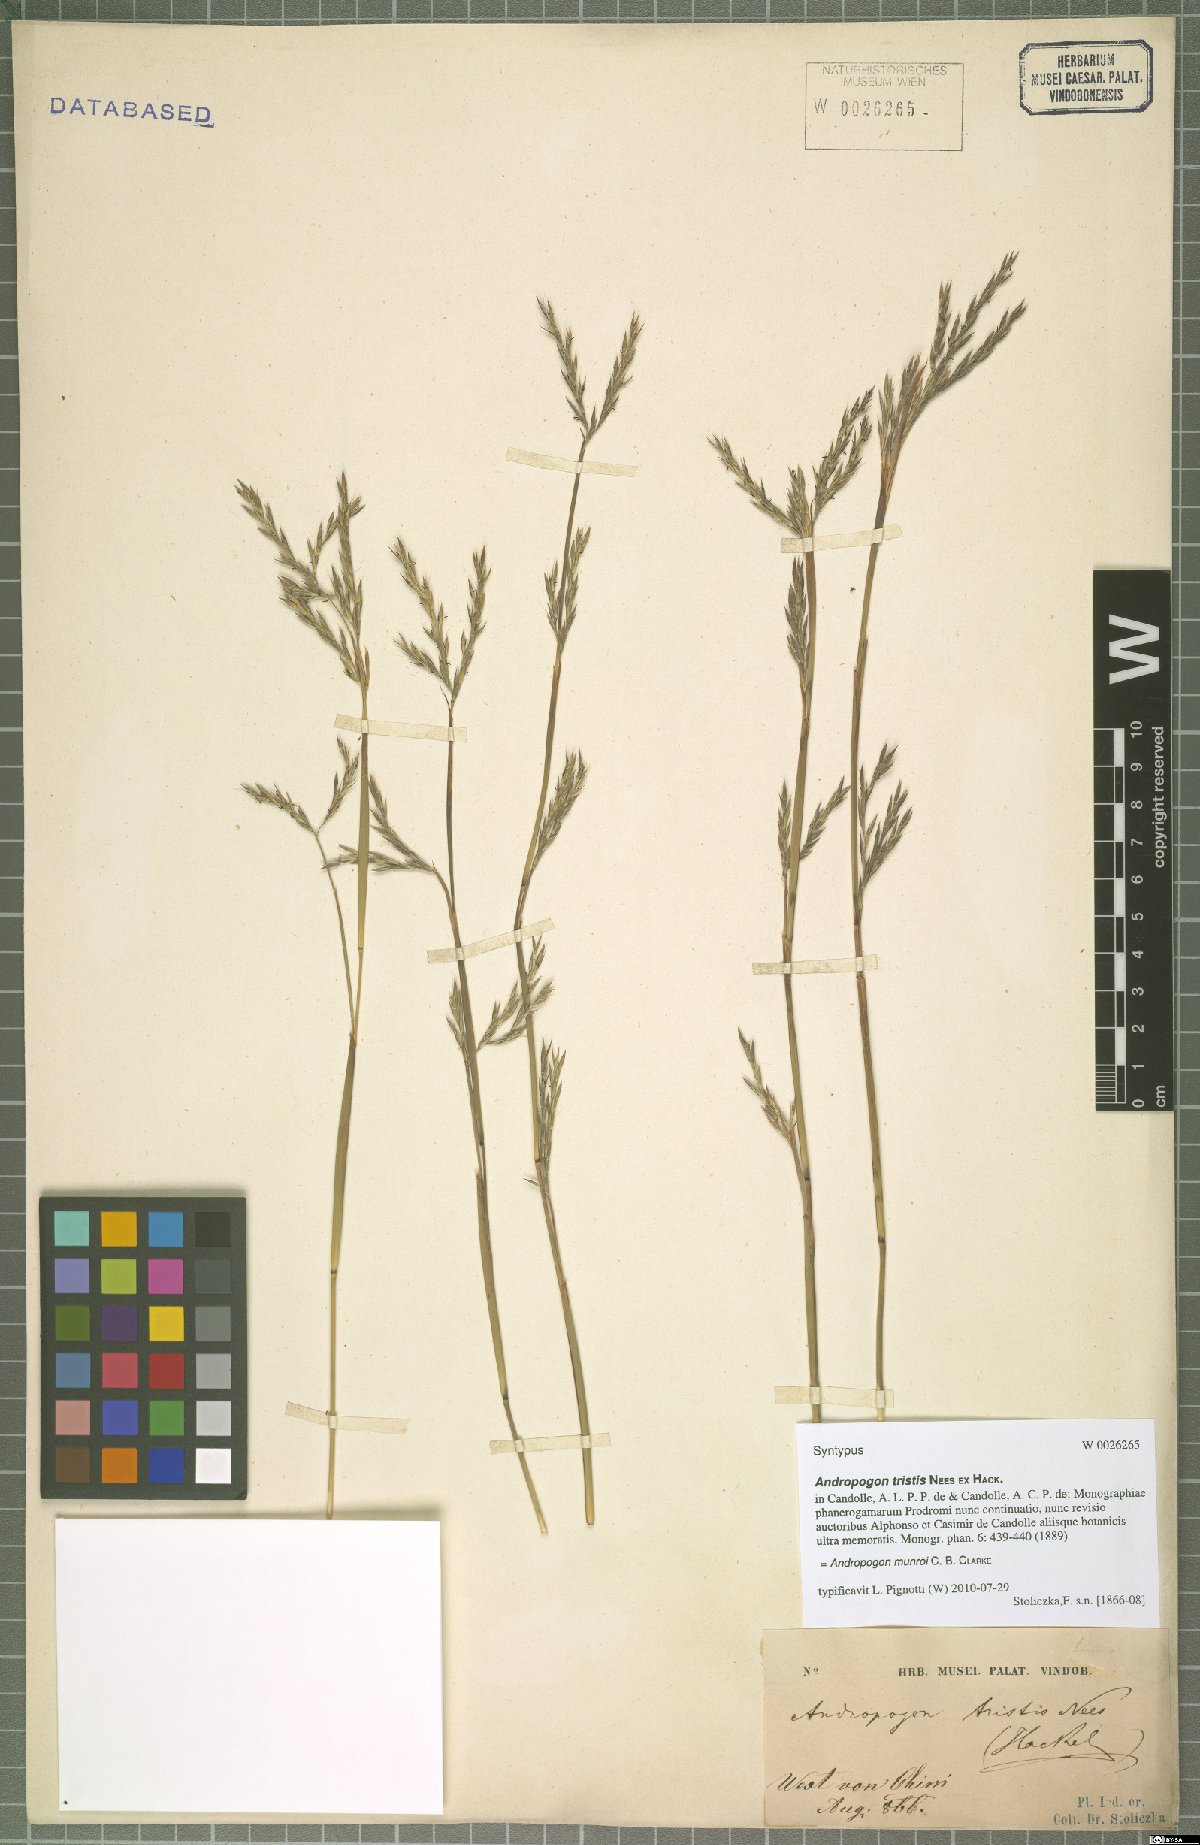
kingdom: Plantae
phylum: Tracheophyta
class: Liliopsida
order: Poales
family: Poaceae
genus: Andropogon
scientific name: Andropogon munroi
